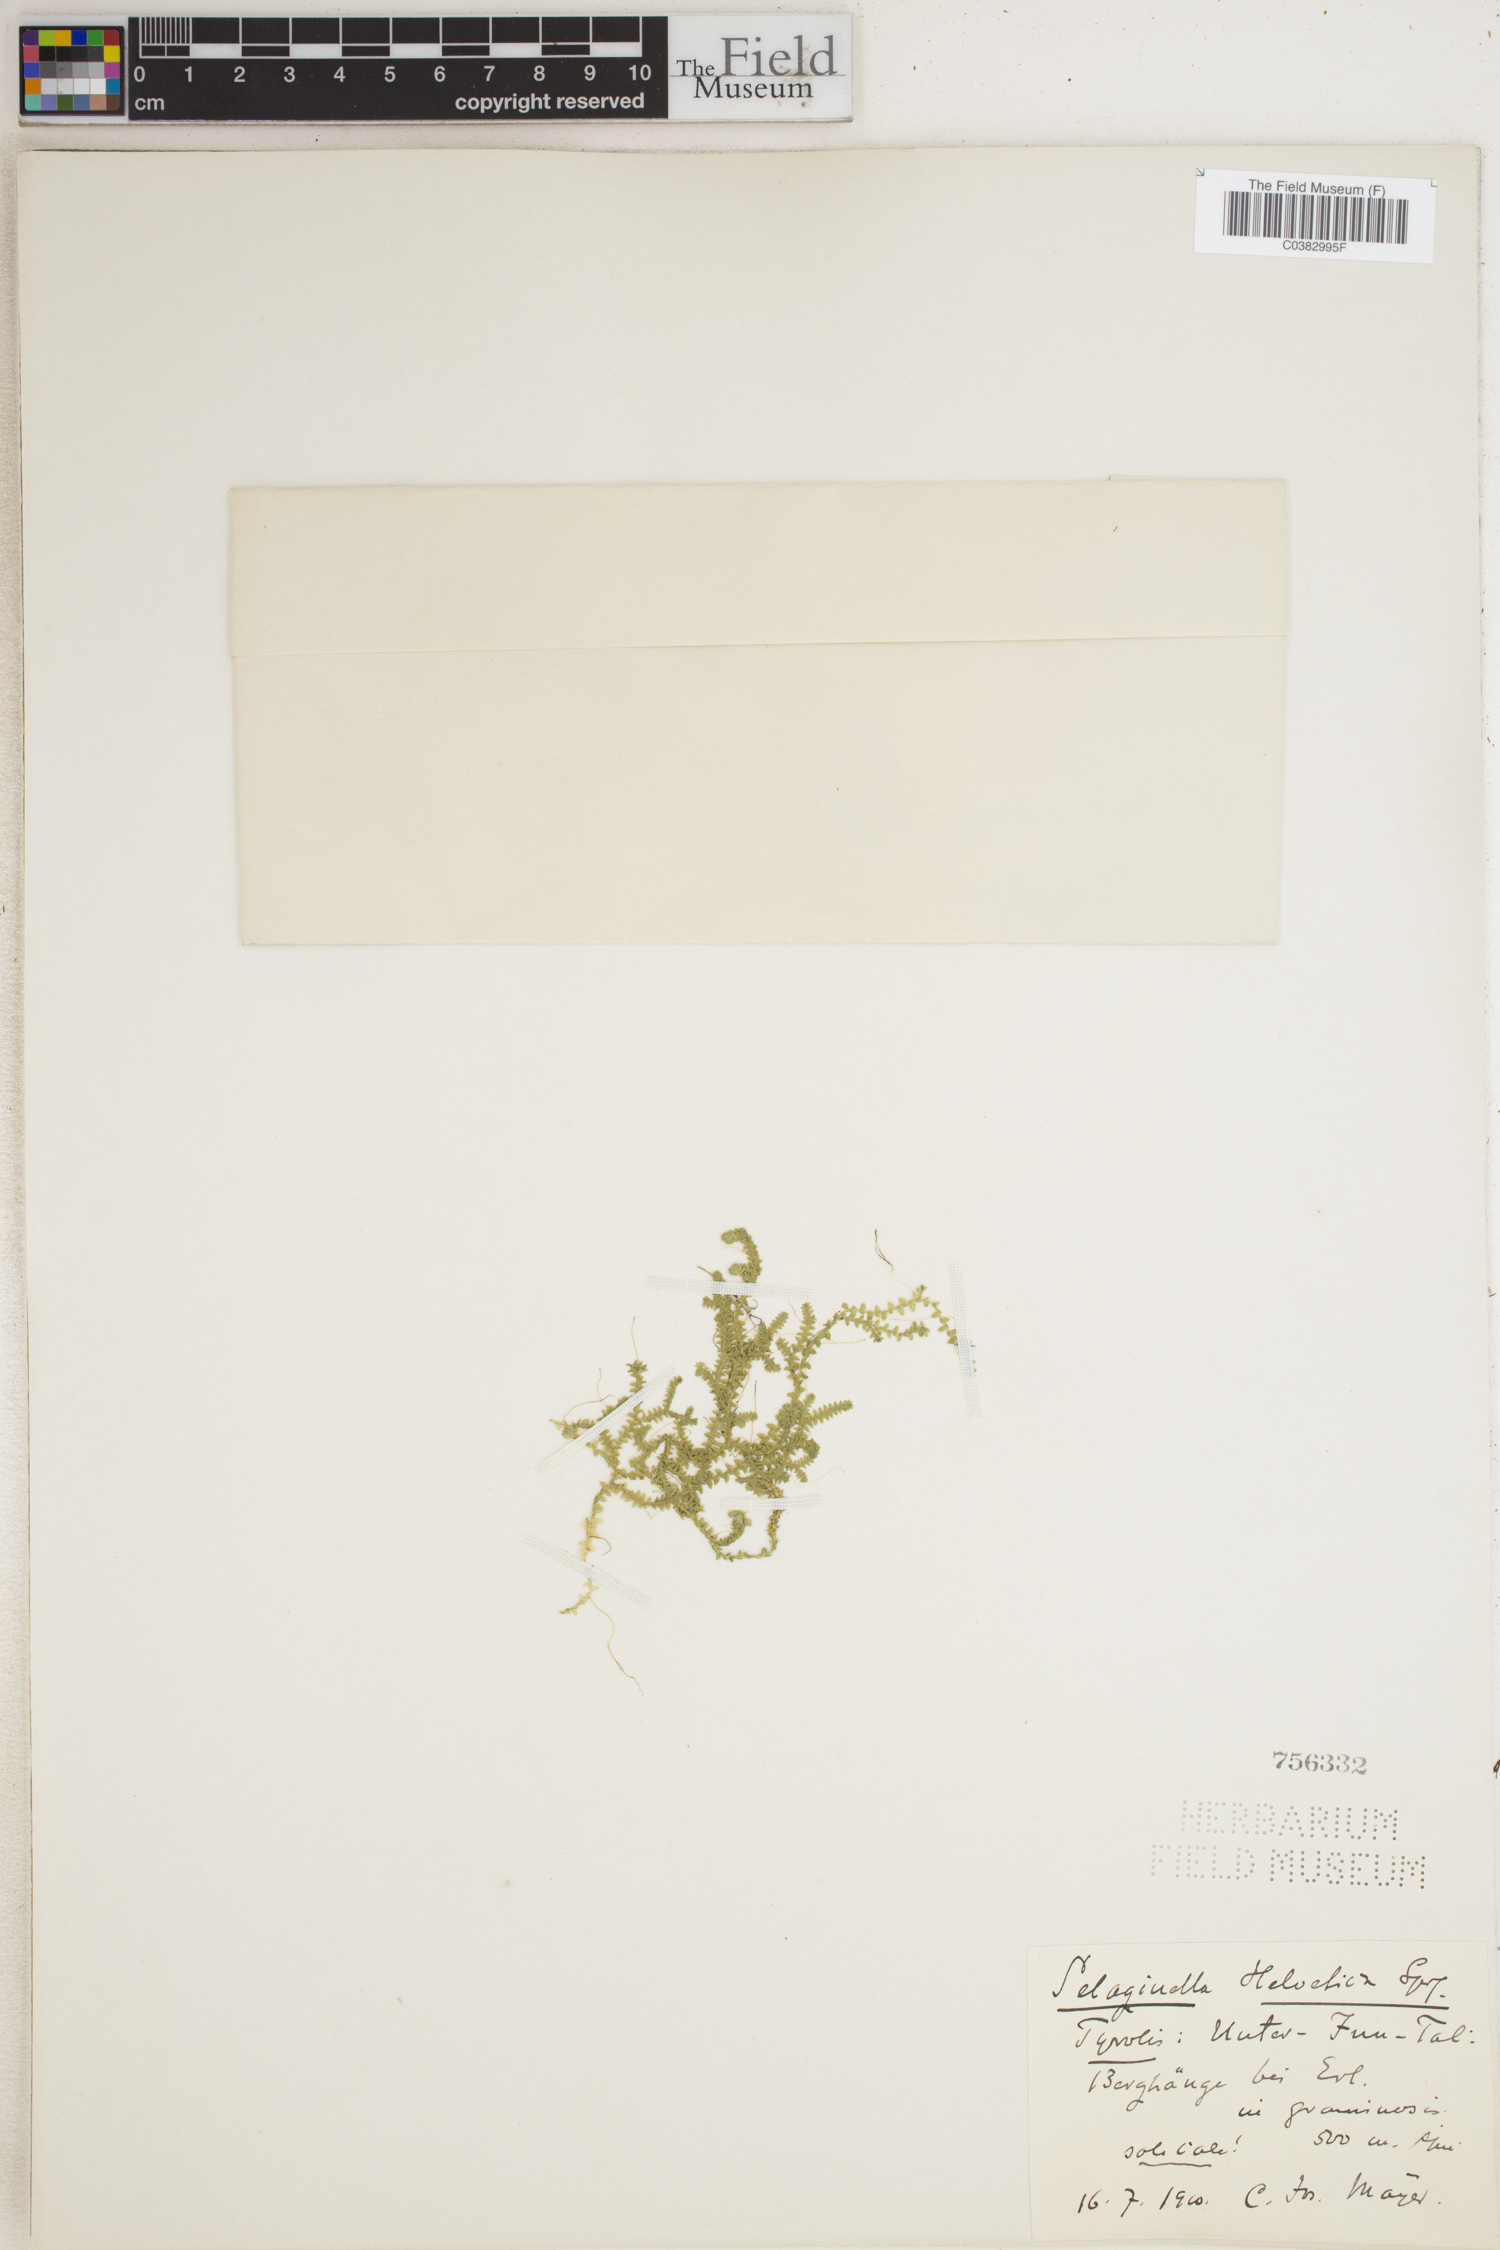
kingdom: Plantae
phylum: Tracheophyta
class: Lycopodiopsida
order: Selaginellales
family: Selaginellaceae
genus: Selaginella
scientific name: Selaginella helvetica
